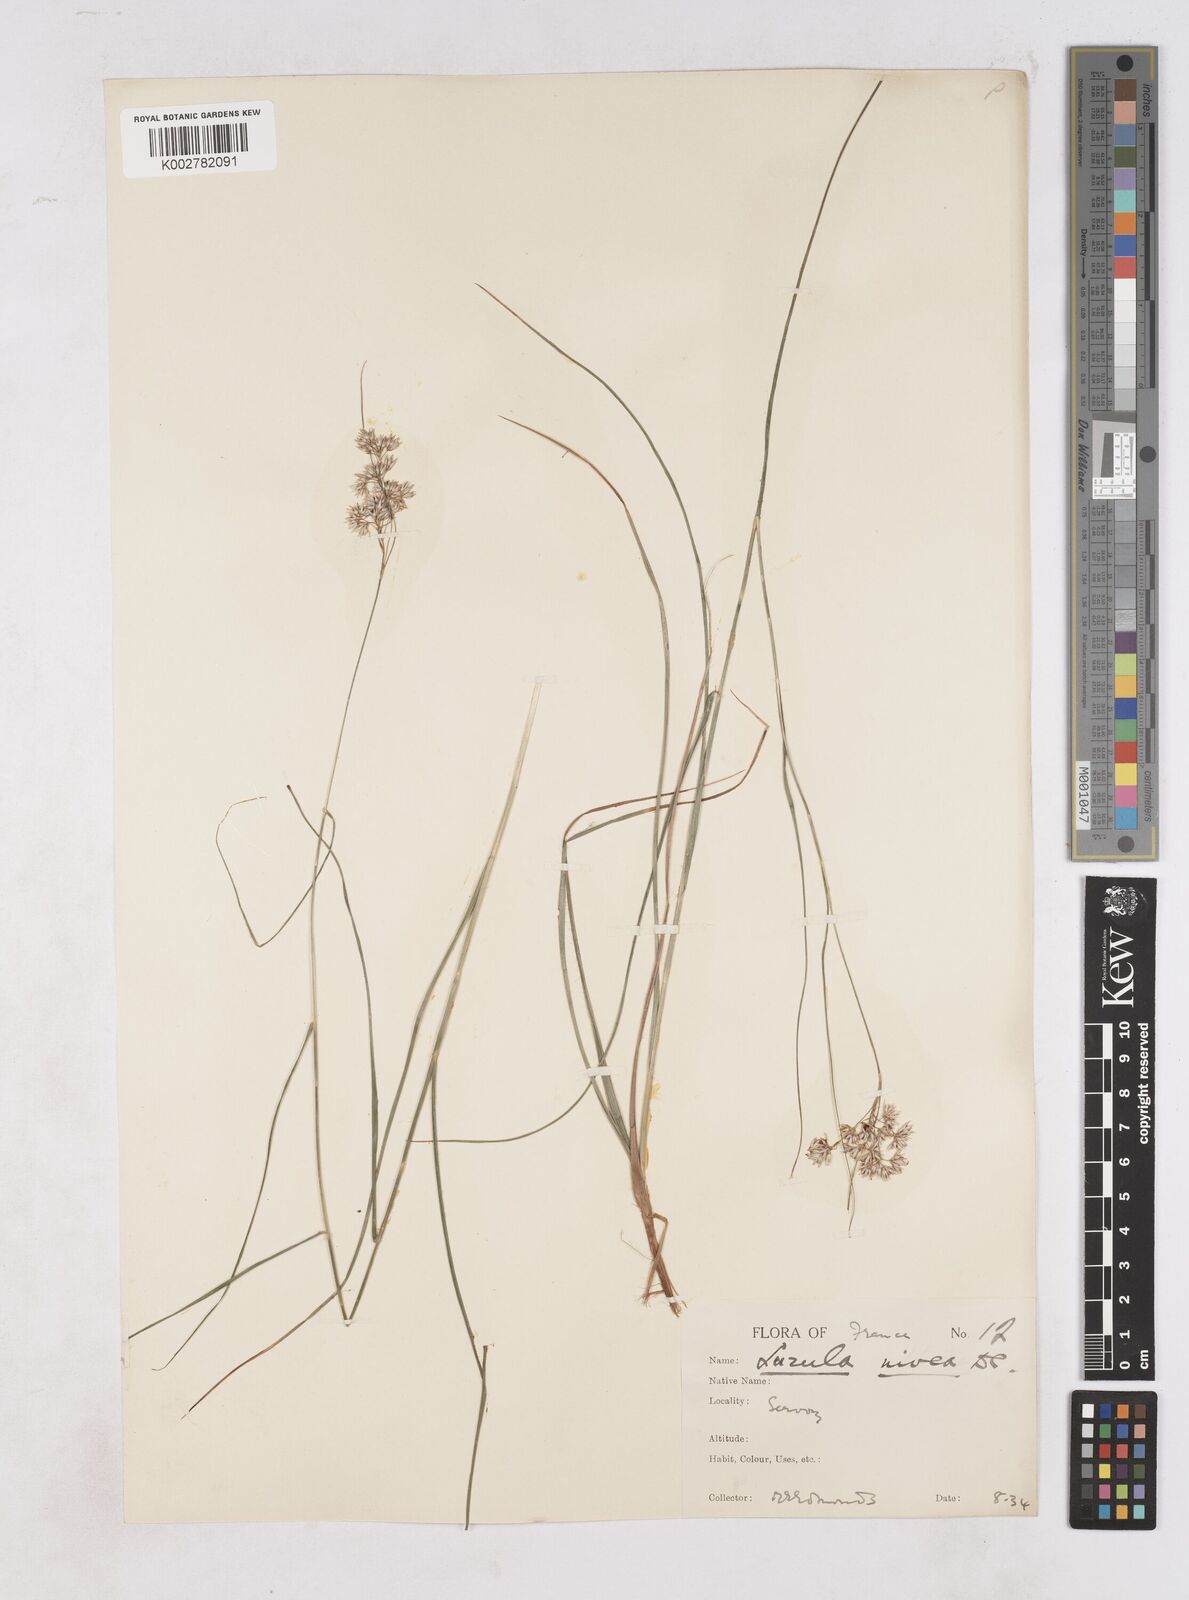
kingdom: Plantae
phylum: Tracheophyta
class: Liliopsida
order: Poales
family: Juncaceae
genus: Luzula
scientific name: Luzula nivea
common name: Snow-white wood-rush
